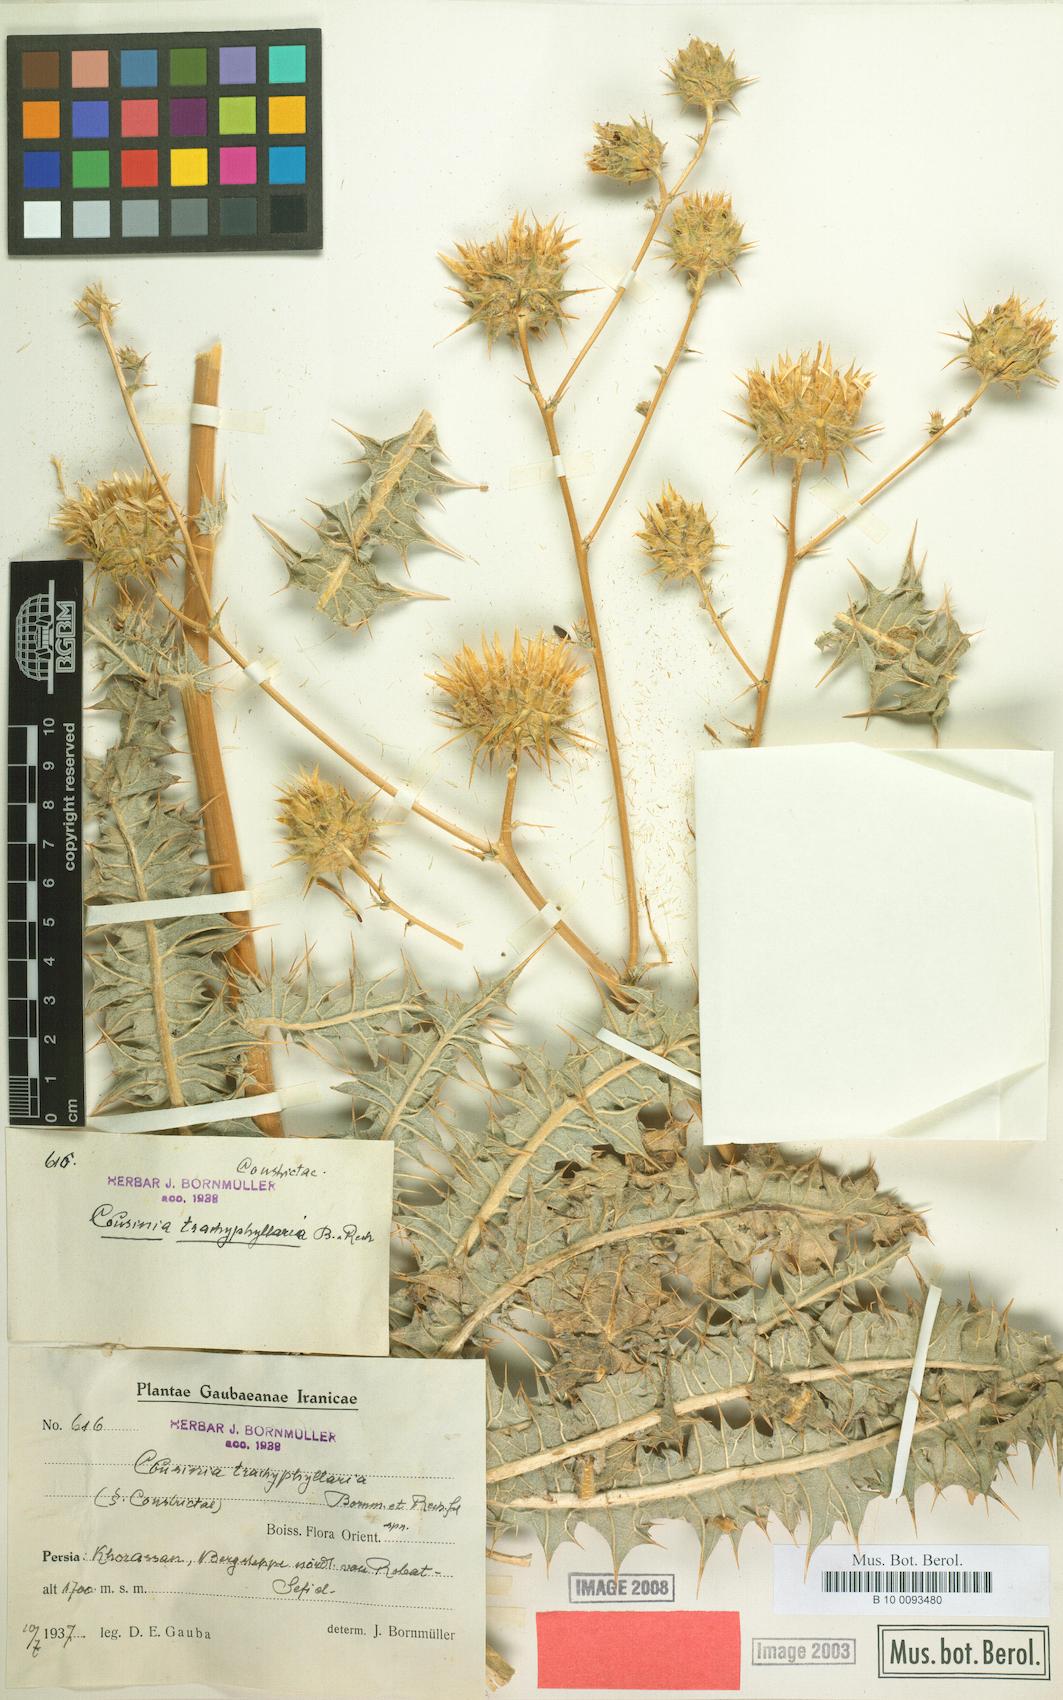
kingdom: Plantae
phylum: Tracheophyta
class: Magnoliopsida
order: Asterales
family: Asteraceae
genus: Cousinia
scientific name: Cousinia trachyphyllaria
